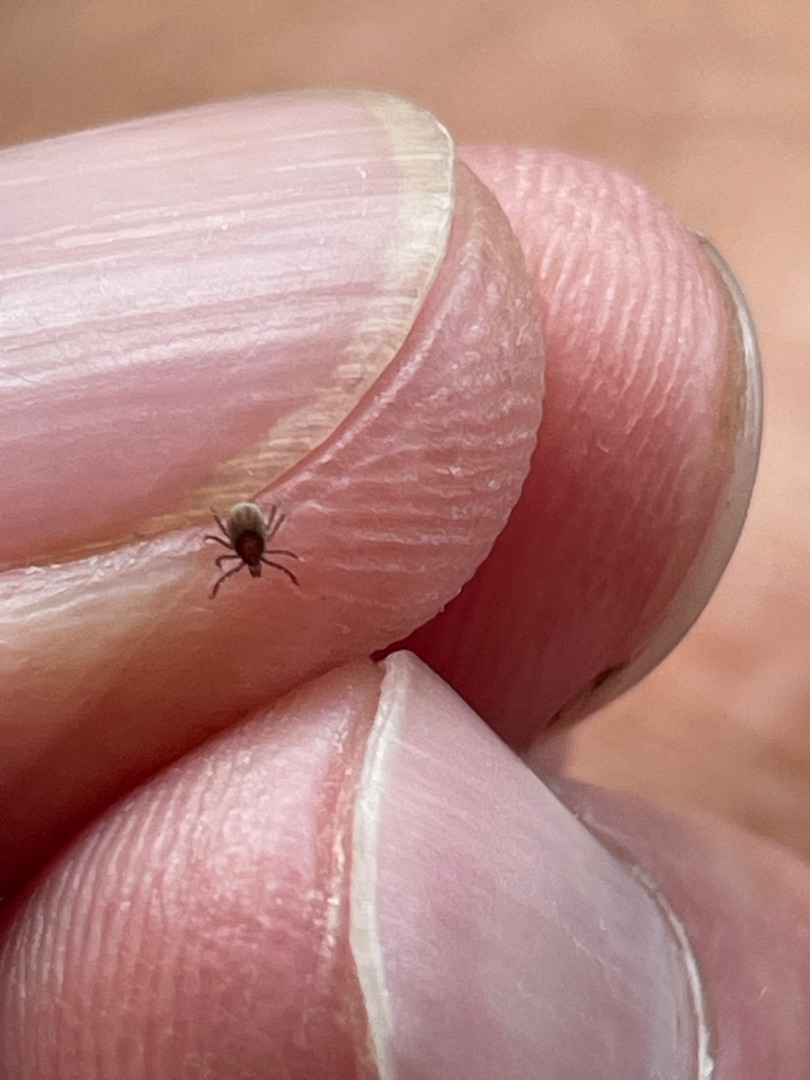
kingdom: Animalia
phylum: Arthropoda
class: Arachnida
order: Ixodida
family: Ixodidae
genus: Ixodes
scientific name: Ixodes ricinus
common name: Skovflåt
